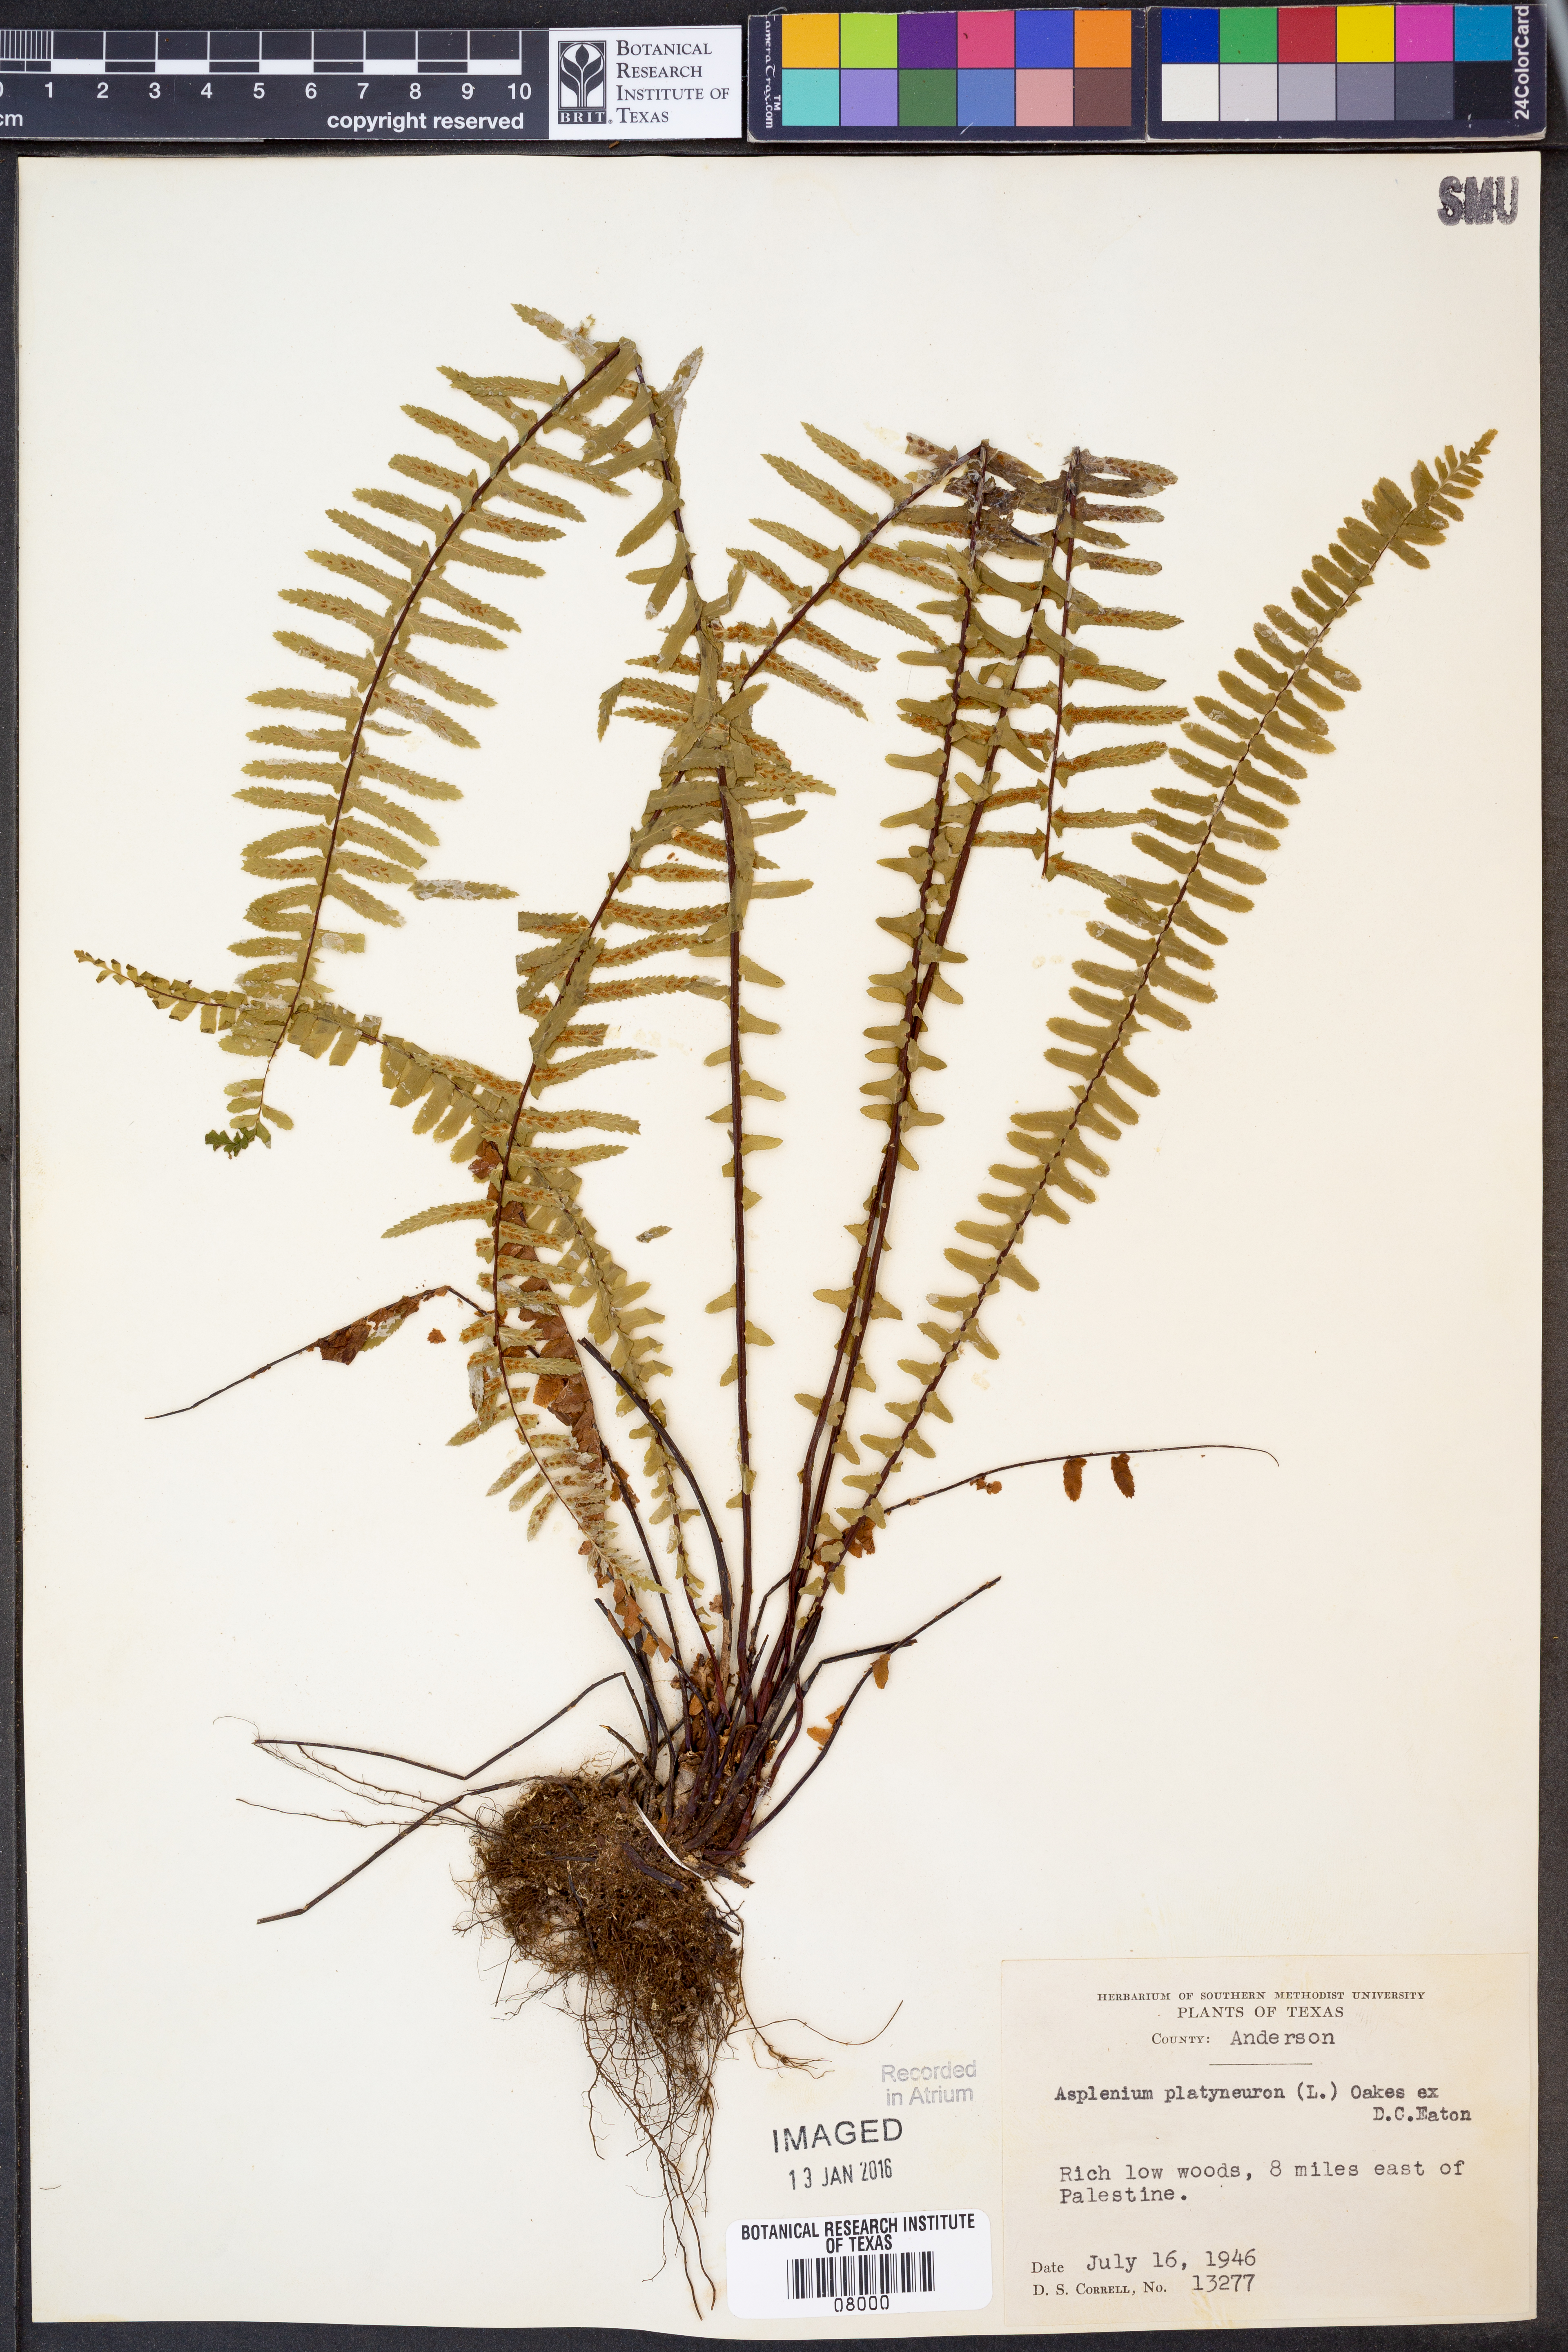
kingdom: Plantae
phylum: Tracheophyta
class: Polypodiopsida
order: Polypodiales
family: Aspleniaceae
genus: Asplenium
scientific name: Asplenium platyneuron
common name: Ebony spleenwort
